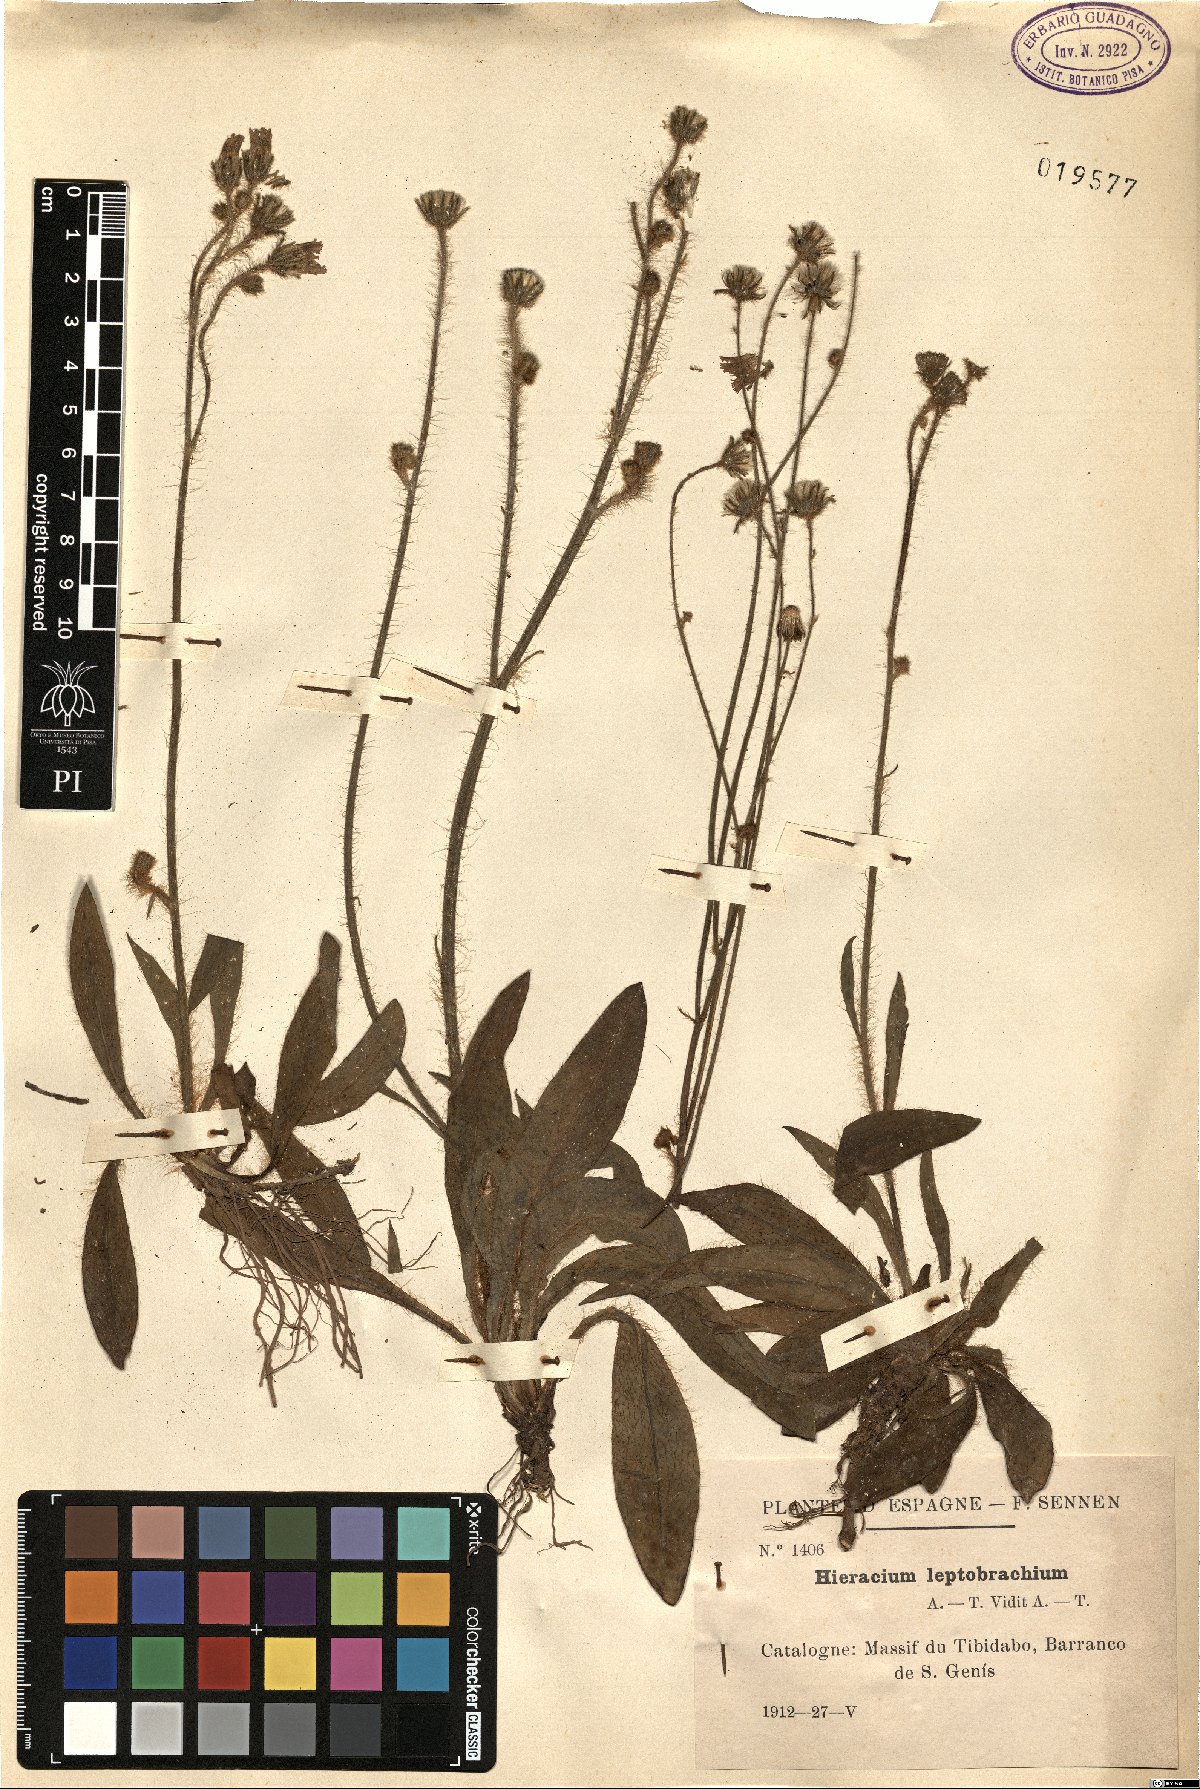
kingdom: Plantae
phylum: Tracheophyta
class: Magnoliopsida
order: Asterales
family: Asteraceae
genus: Pilosella
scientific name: Pilosella leptobrachia
